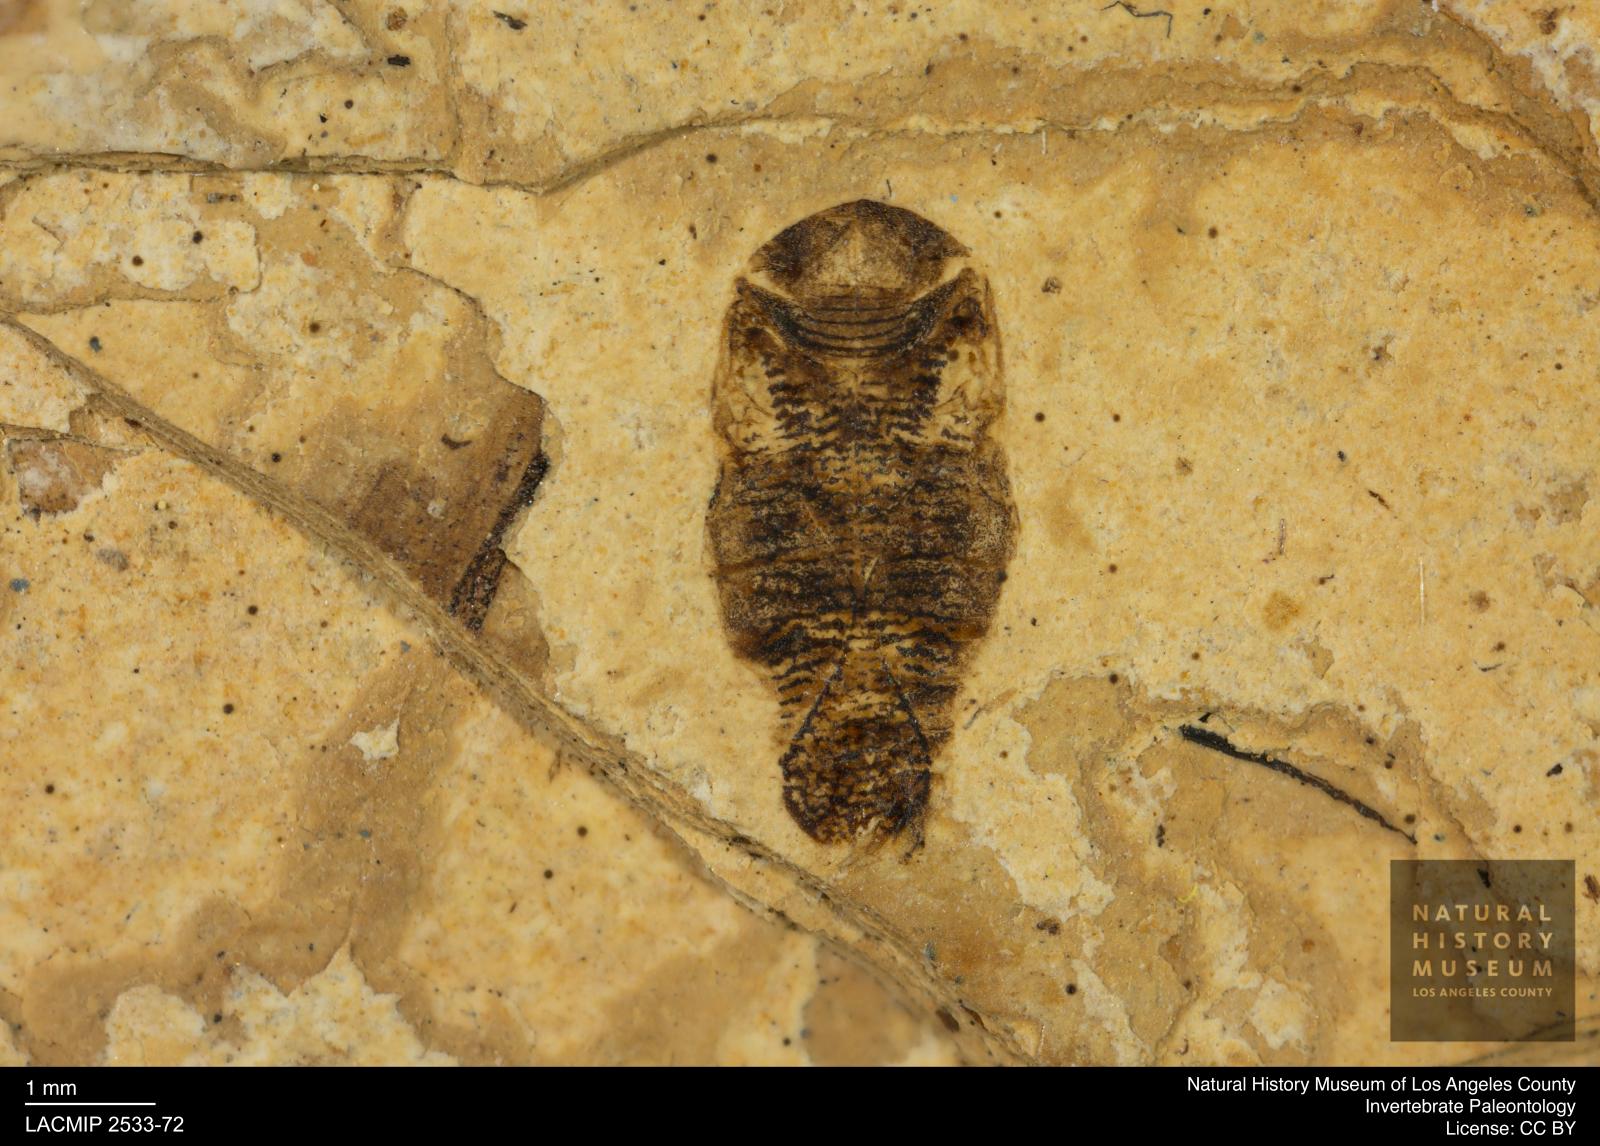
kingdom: Animalia
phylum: Arthropoda
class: Insecta
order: Hemiptera
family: Corixidae
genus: Corixa
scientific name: Corixa
